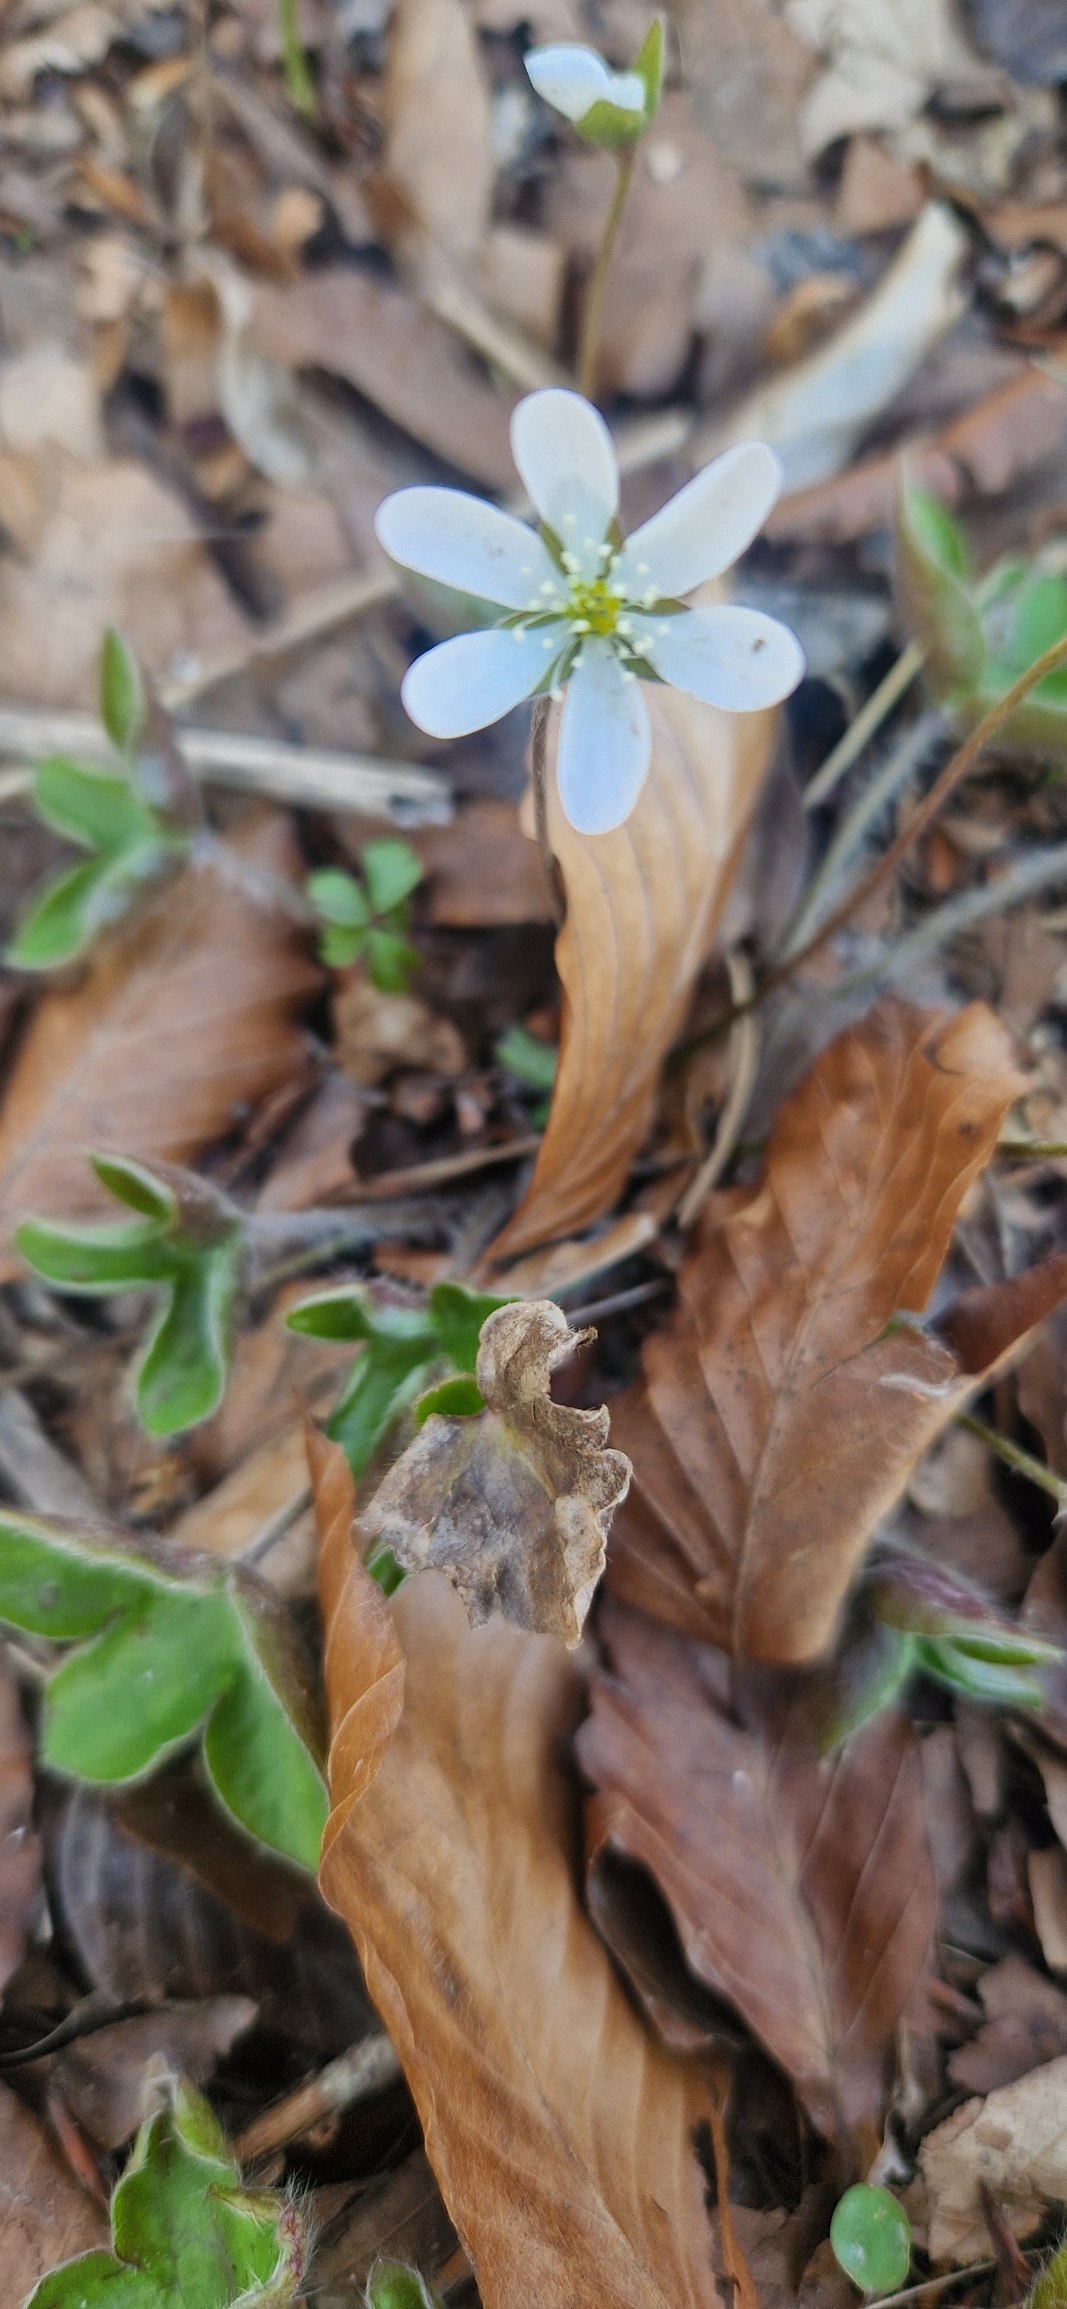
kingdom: Plantae
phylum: Tracheophyta
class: Magnoliopsida
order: Ranunculales
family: Ranunculaceae
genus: Hepatica
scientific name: Hepatica nobilis
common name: Blå anemone
